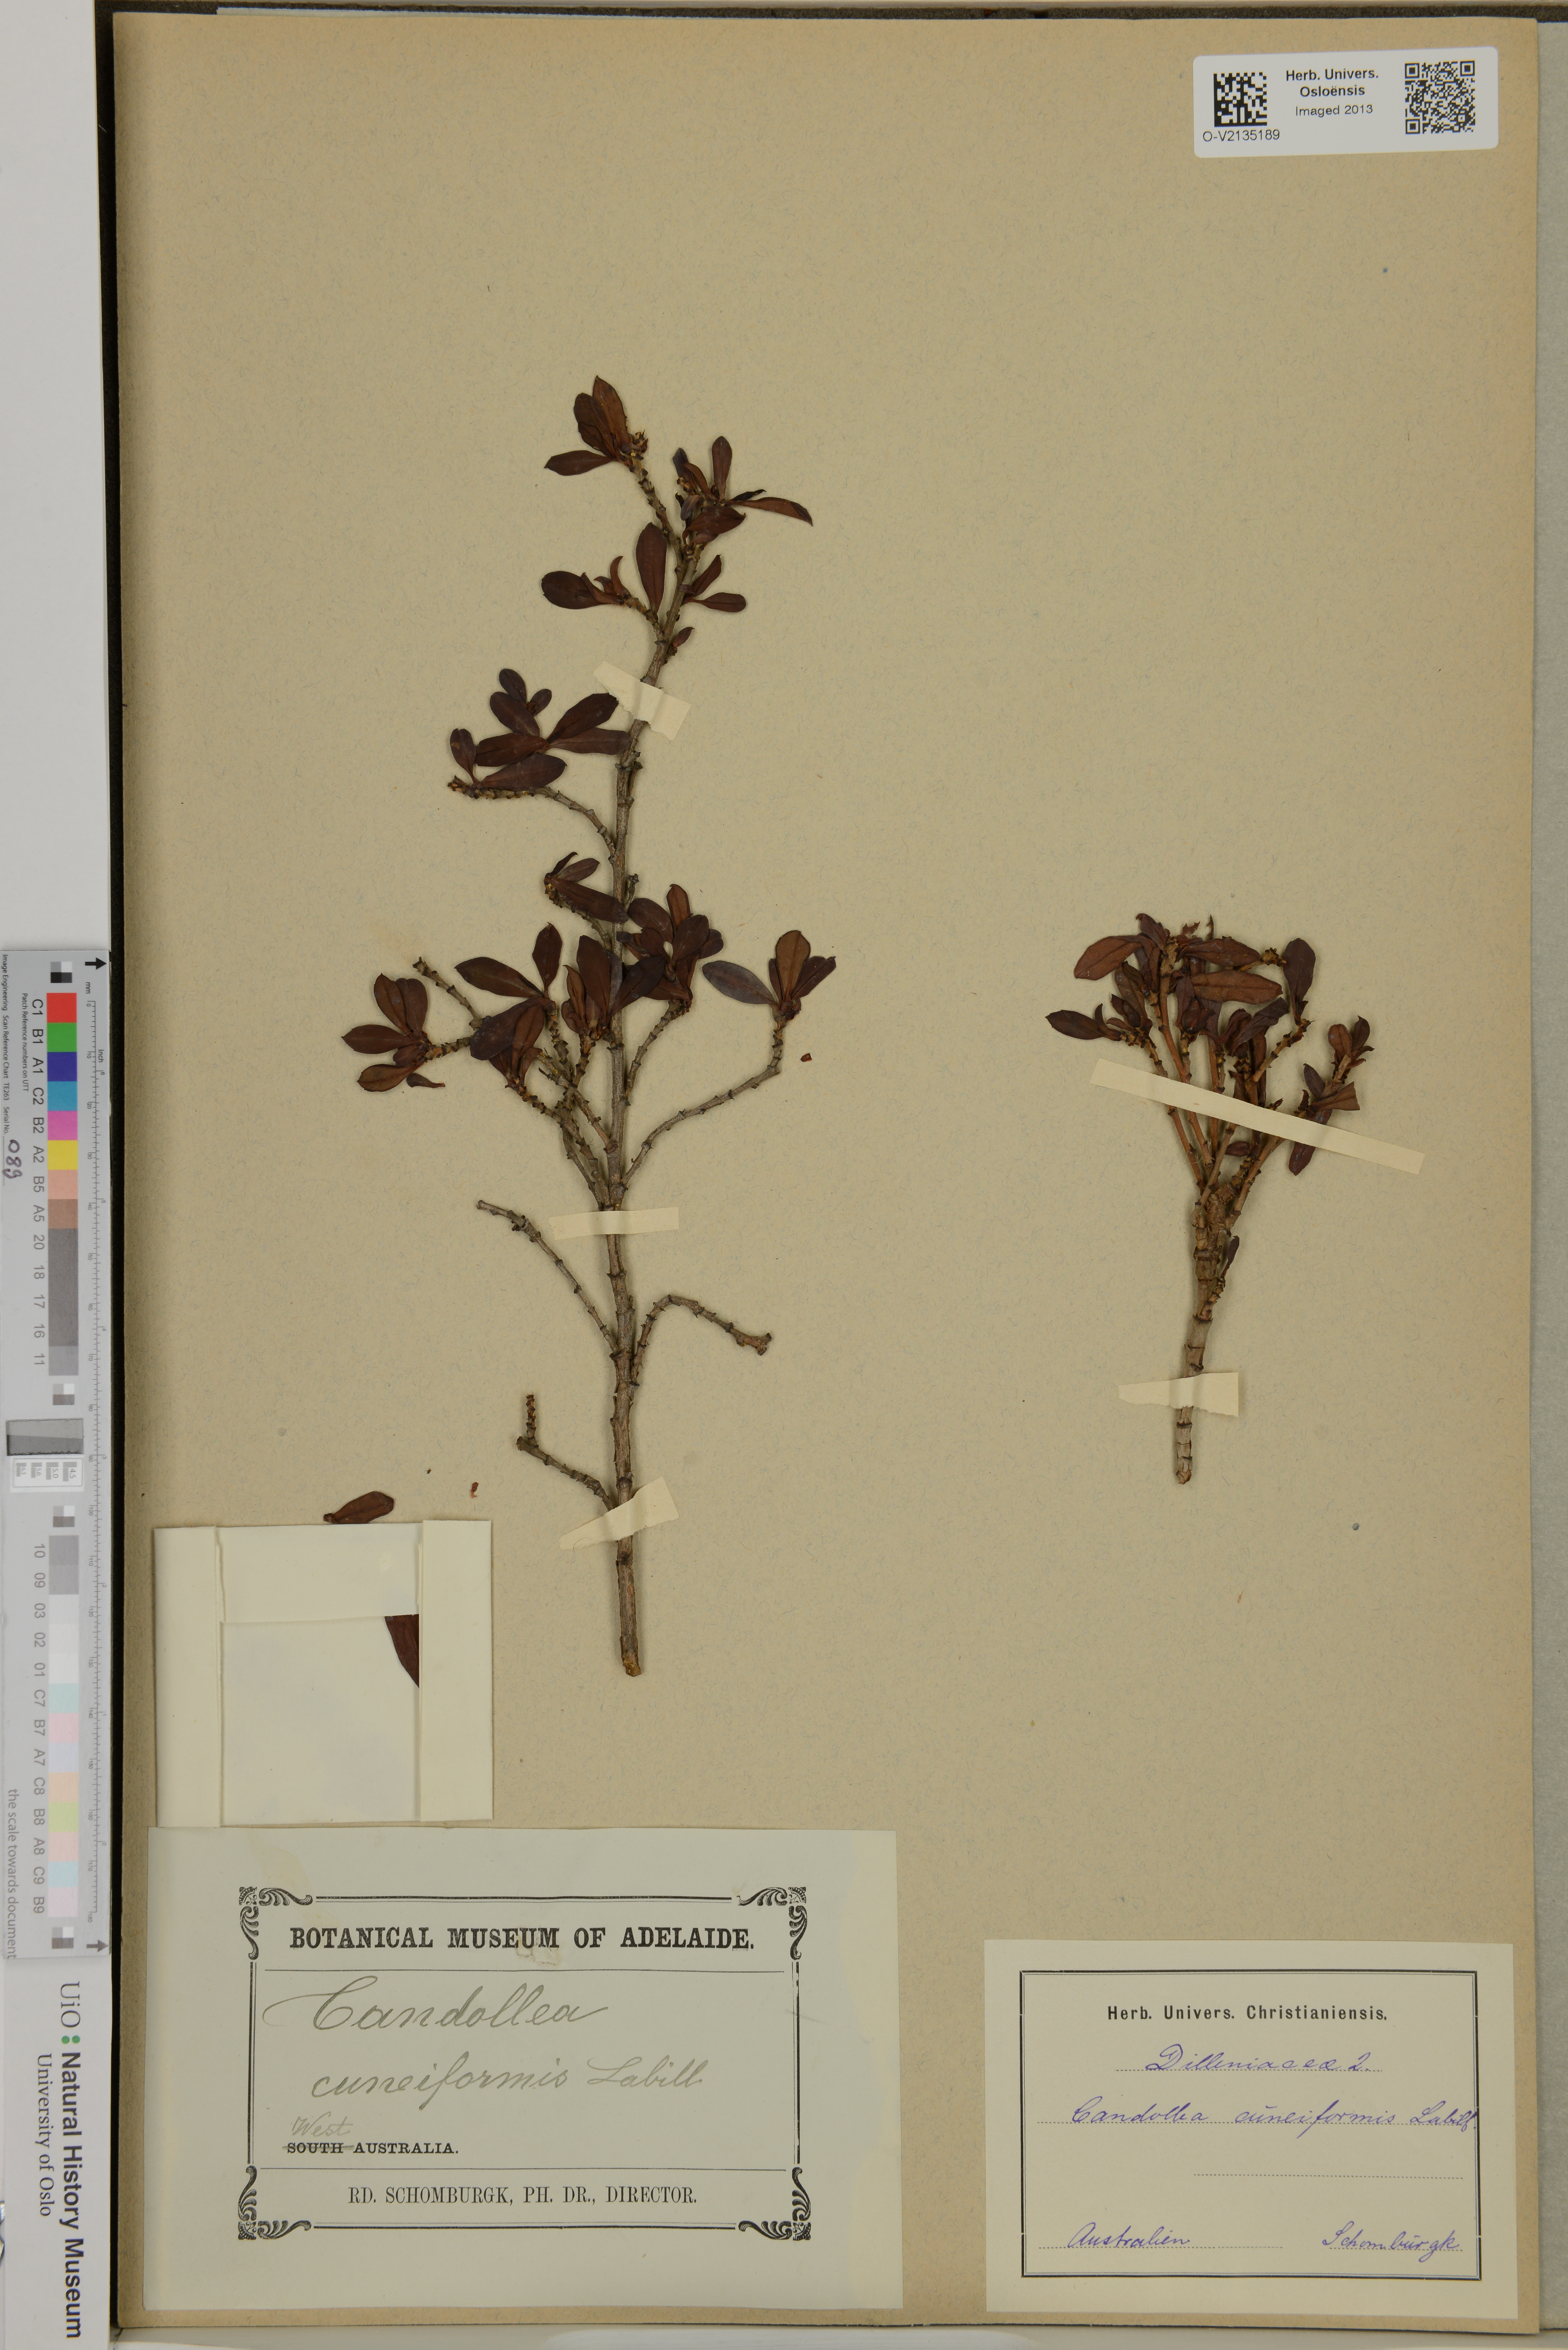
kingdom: Plantae
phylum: Tracheophyta
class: Magnoliopsida
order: Dilleniales
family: Dilleniaceae
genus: Hibbertia
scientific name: Hibbertia cuneiformis
